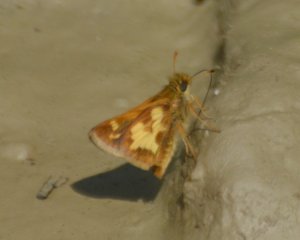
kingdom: Animalia
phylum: Arthropoda
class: Insecta
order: Lepidoptera
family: Hesperiidae
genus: Polites
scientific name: Polites coras
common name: Peck's Skipper
